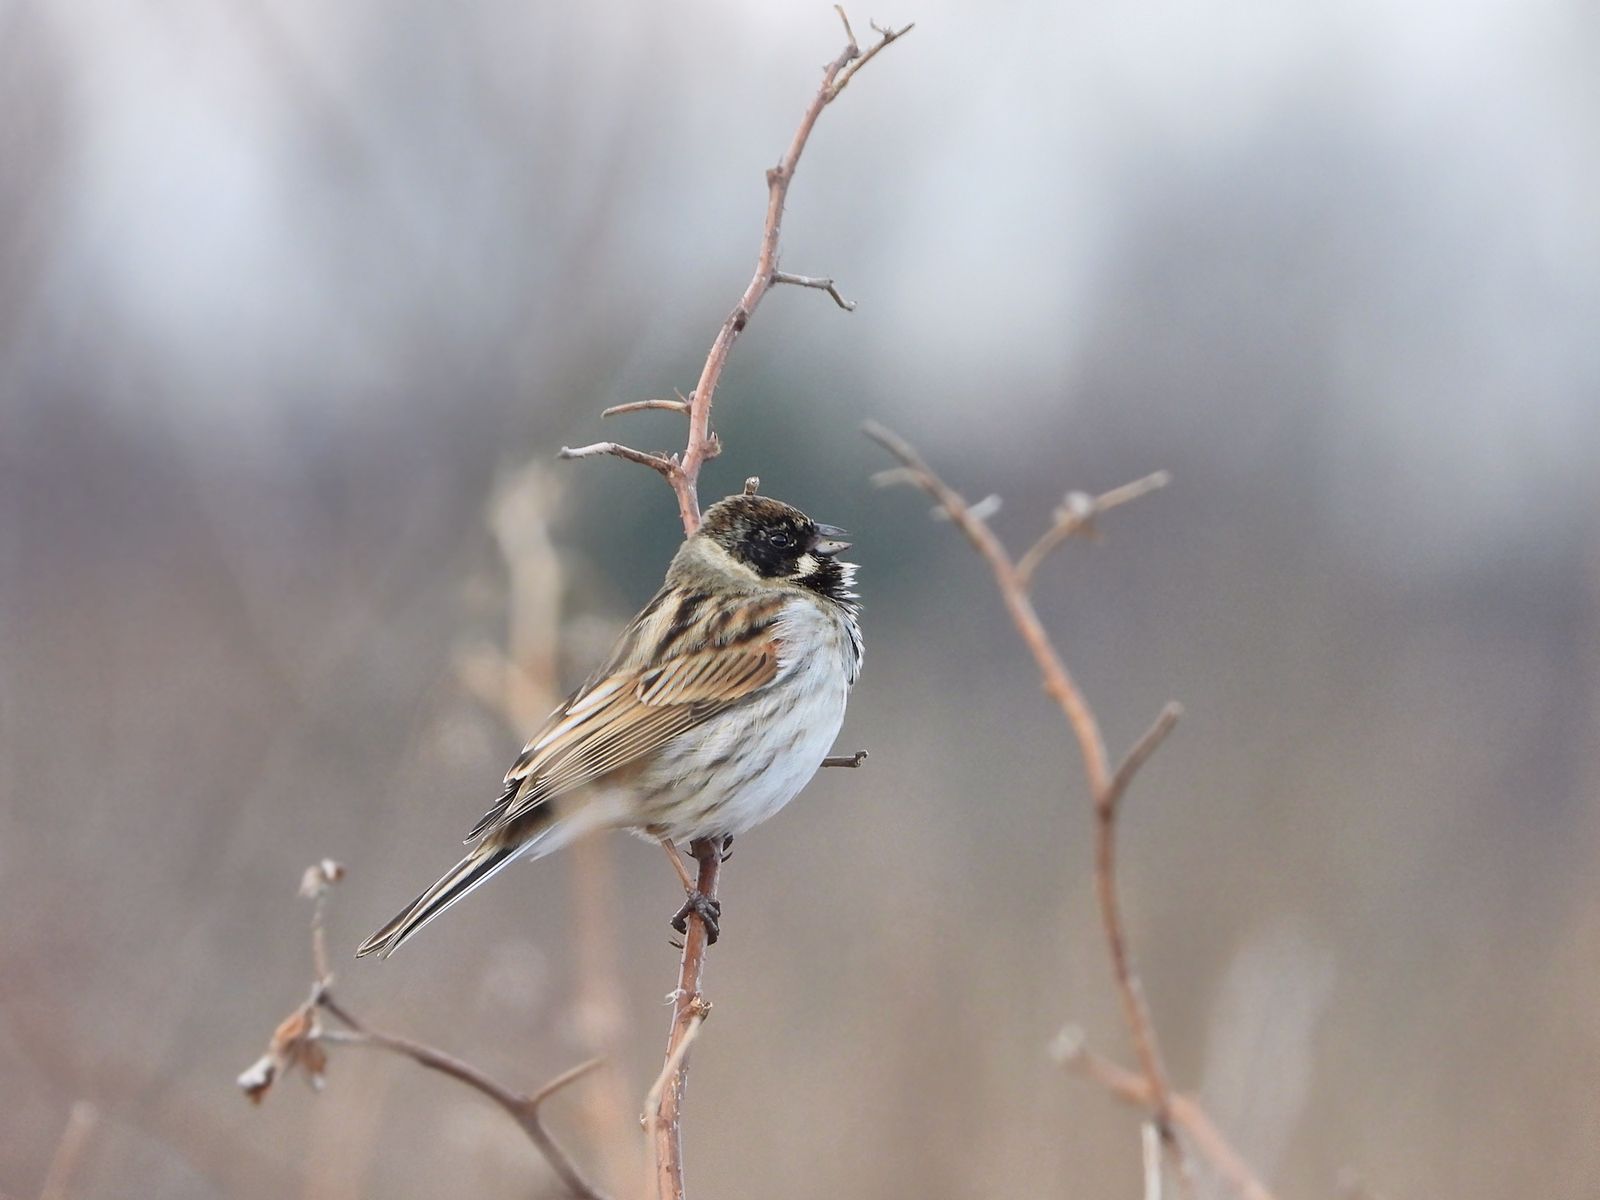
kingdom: Animalia
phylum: Chordata
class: Aves
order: Passeriformes
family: Emberizidae
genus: Emberiza
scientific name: Emberiza schoeniclus
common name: Reed bunting
